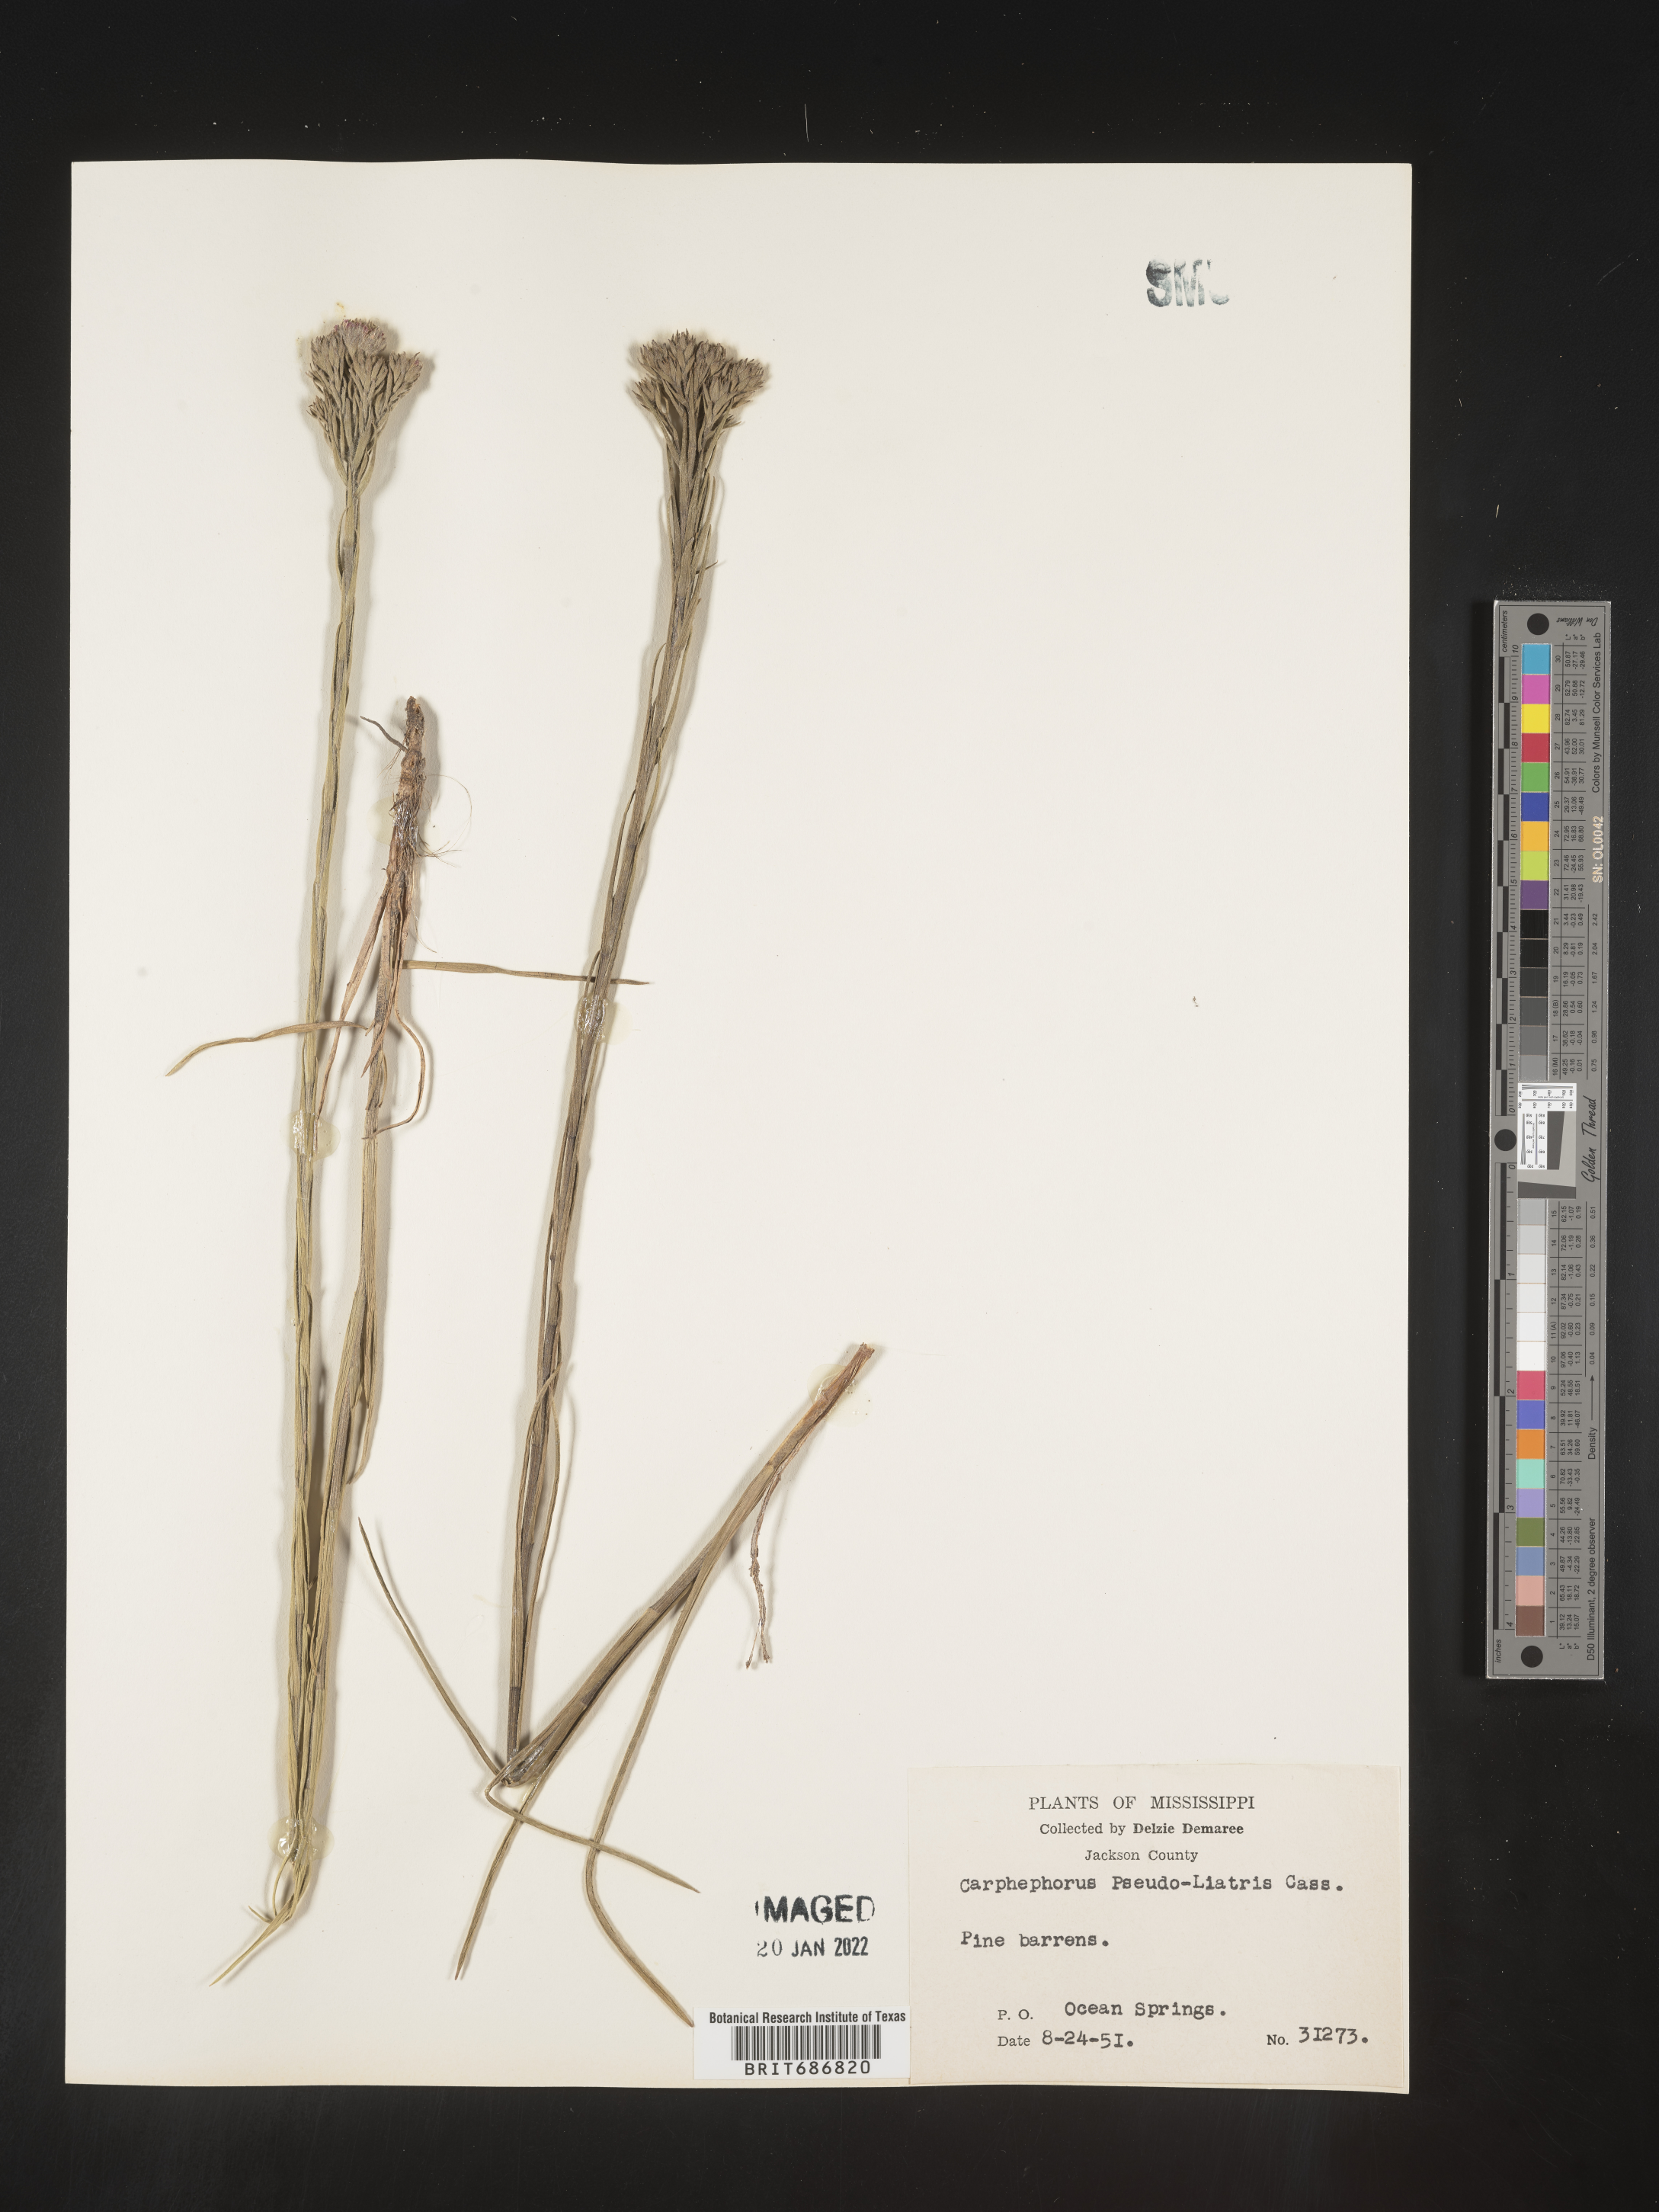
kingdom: Plantae
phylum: Tracheophyta
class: Magnoliopsida
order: Asterales
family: Asteraceae
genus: Carphephorus
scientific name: Carphephorus pseudoliatris
